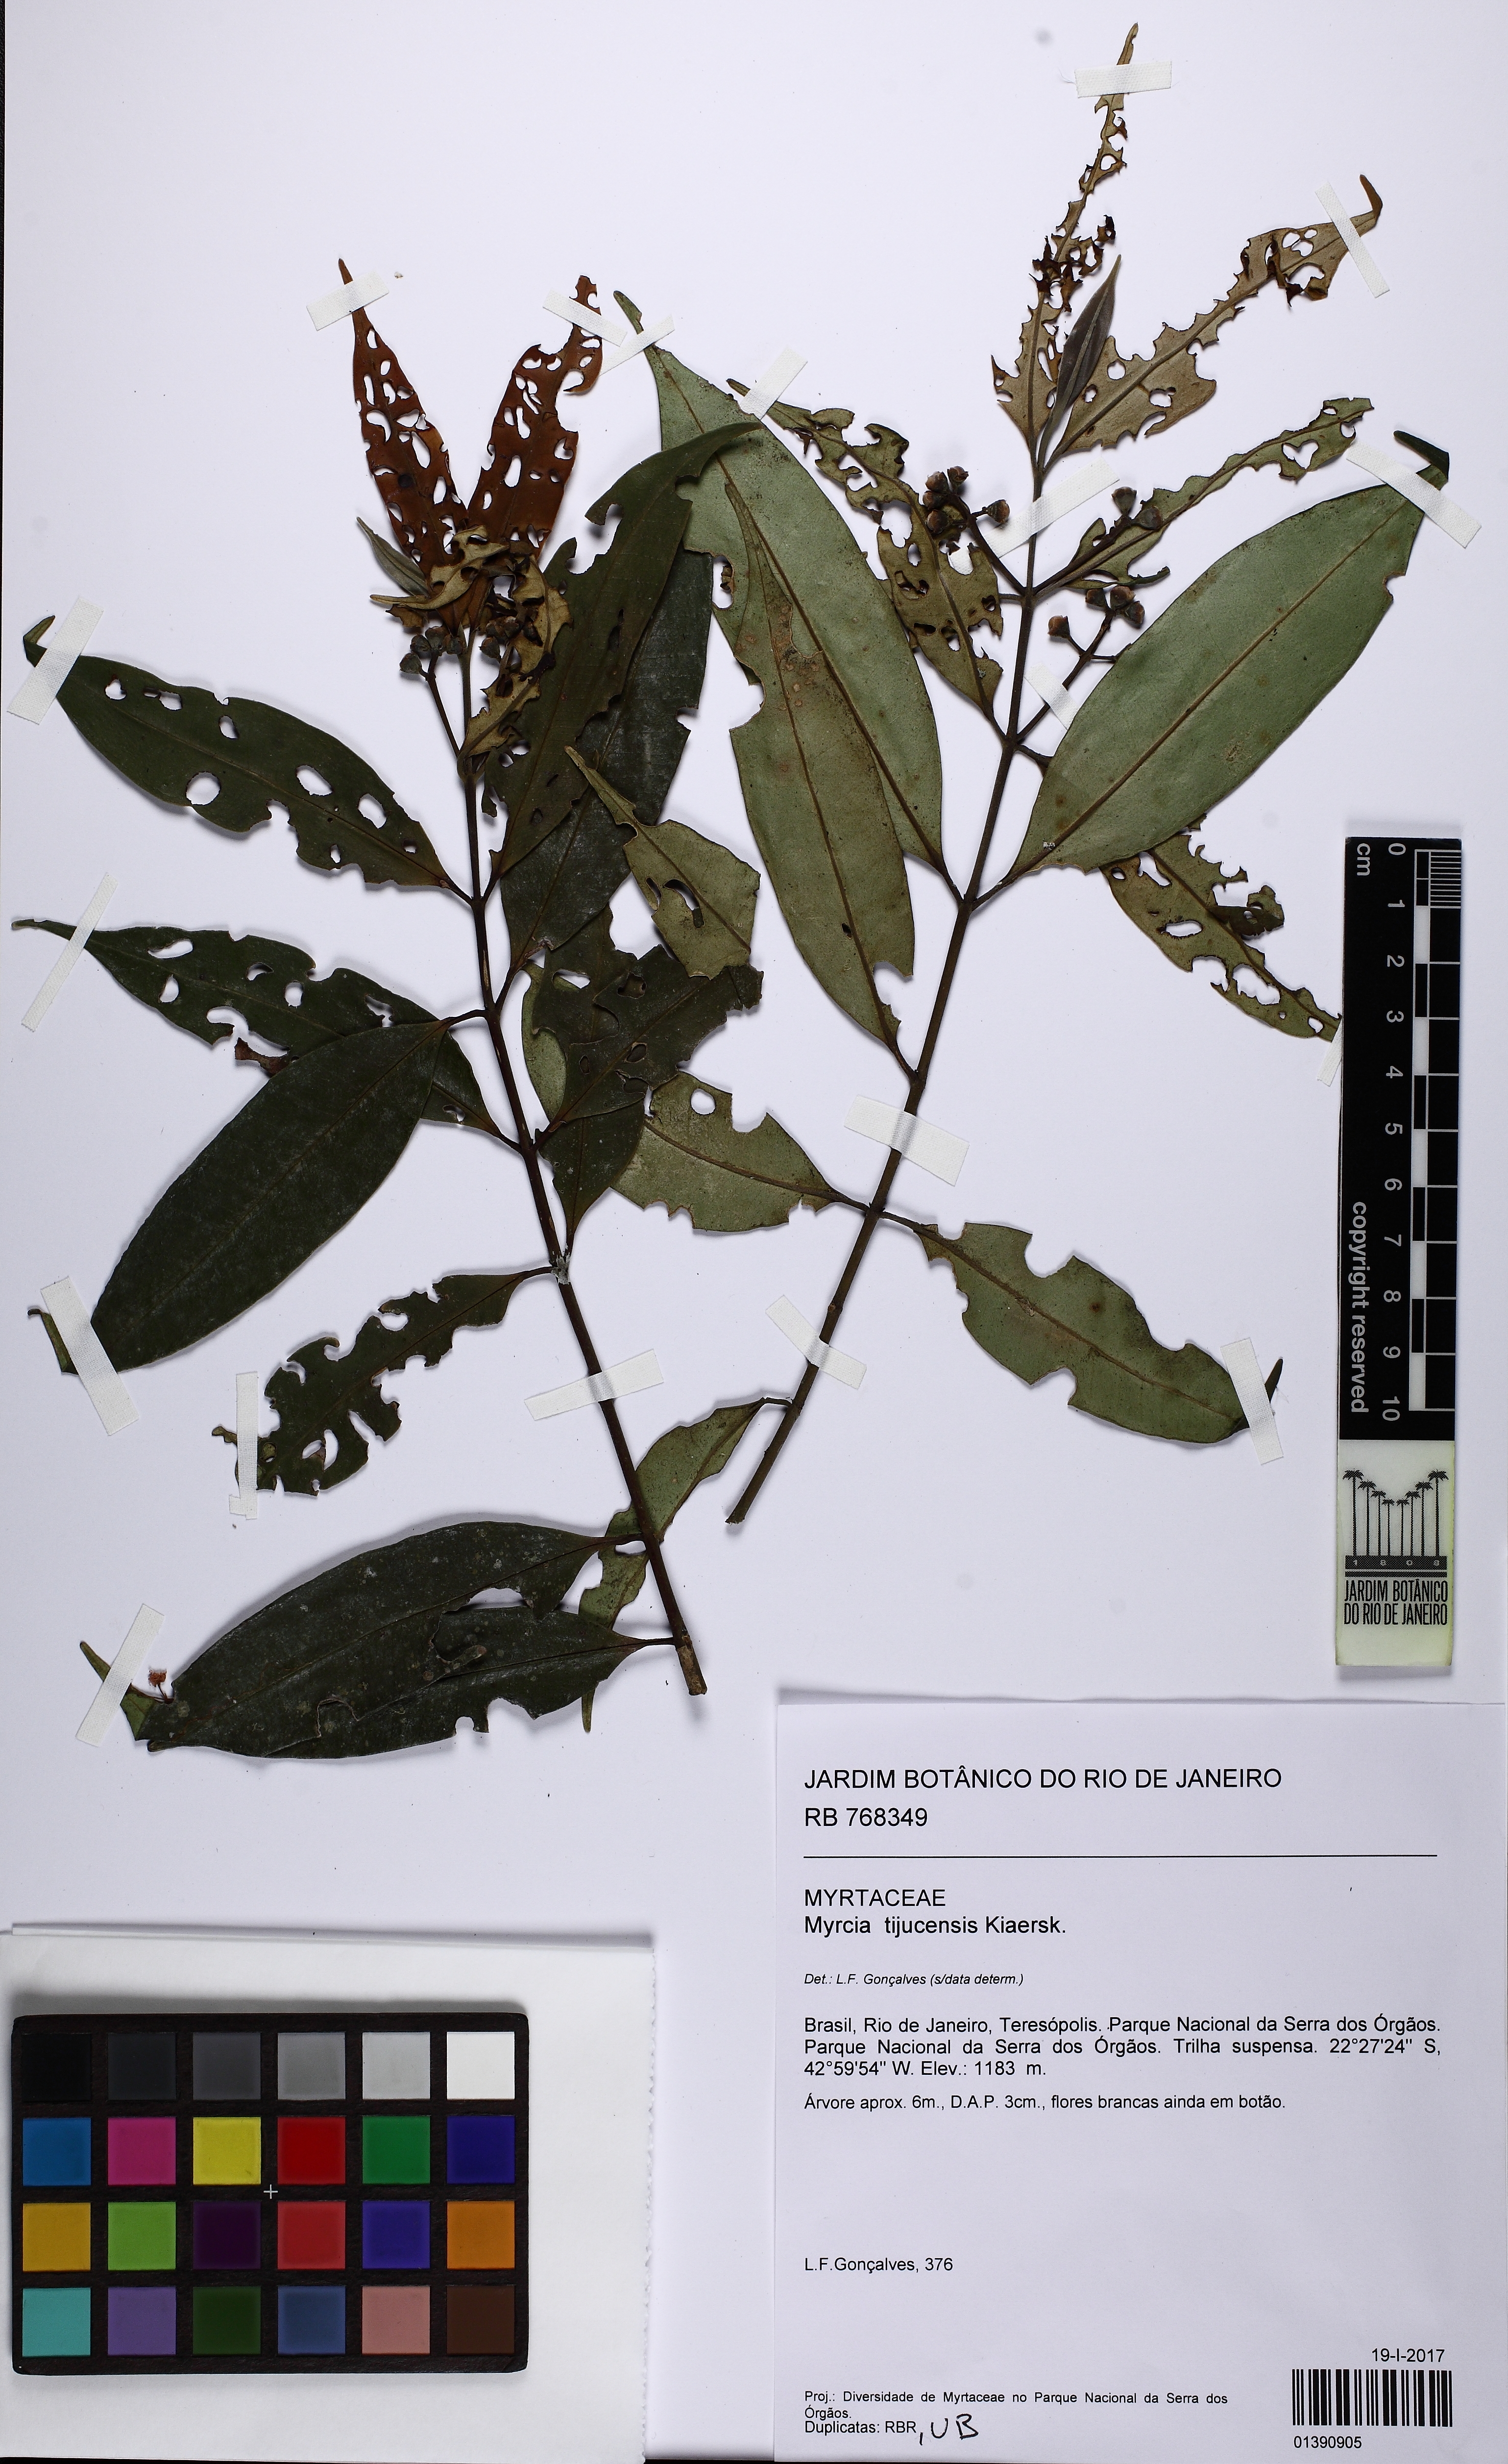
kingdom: Plantae
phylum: Tracheophyta
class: Magnoliopsida
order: Myrtales
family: Myrtaceae
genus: Myrcia
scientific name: Myrcia innovans
